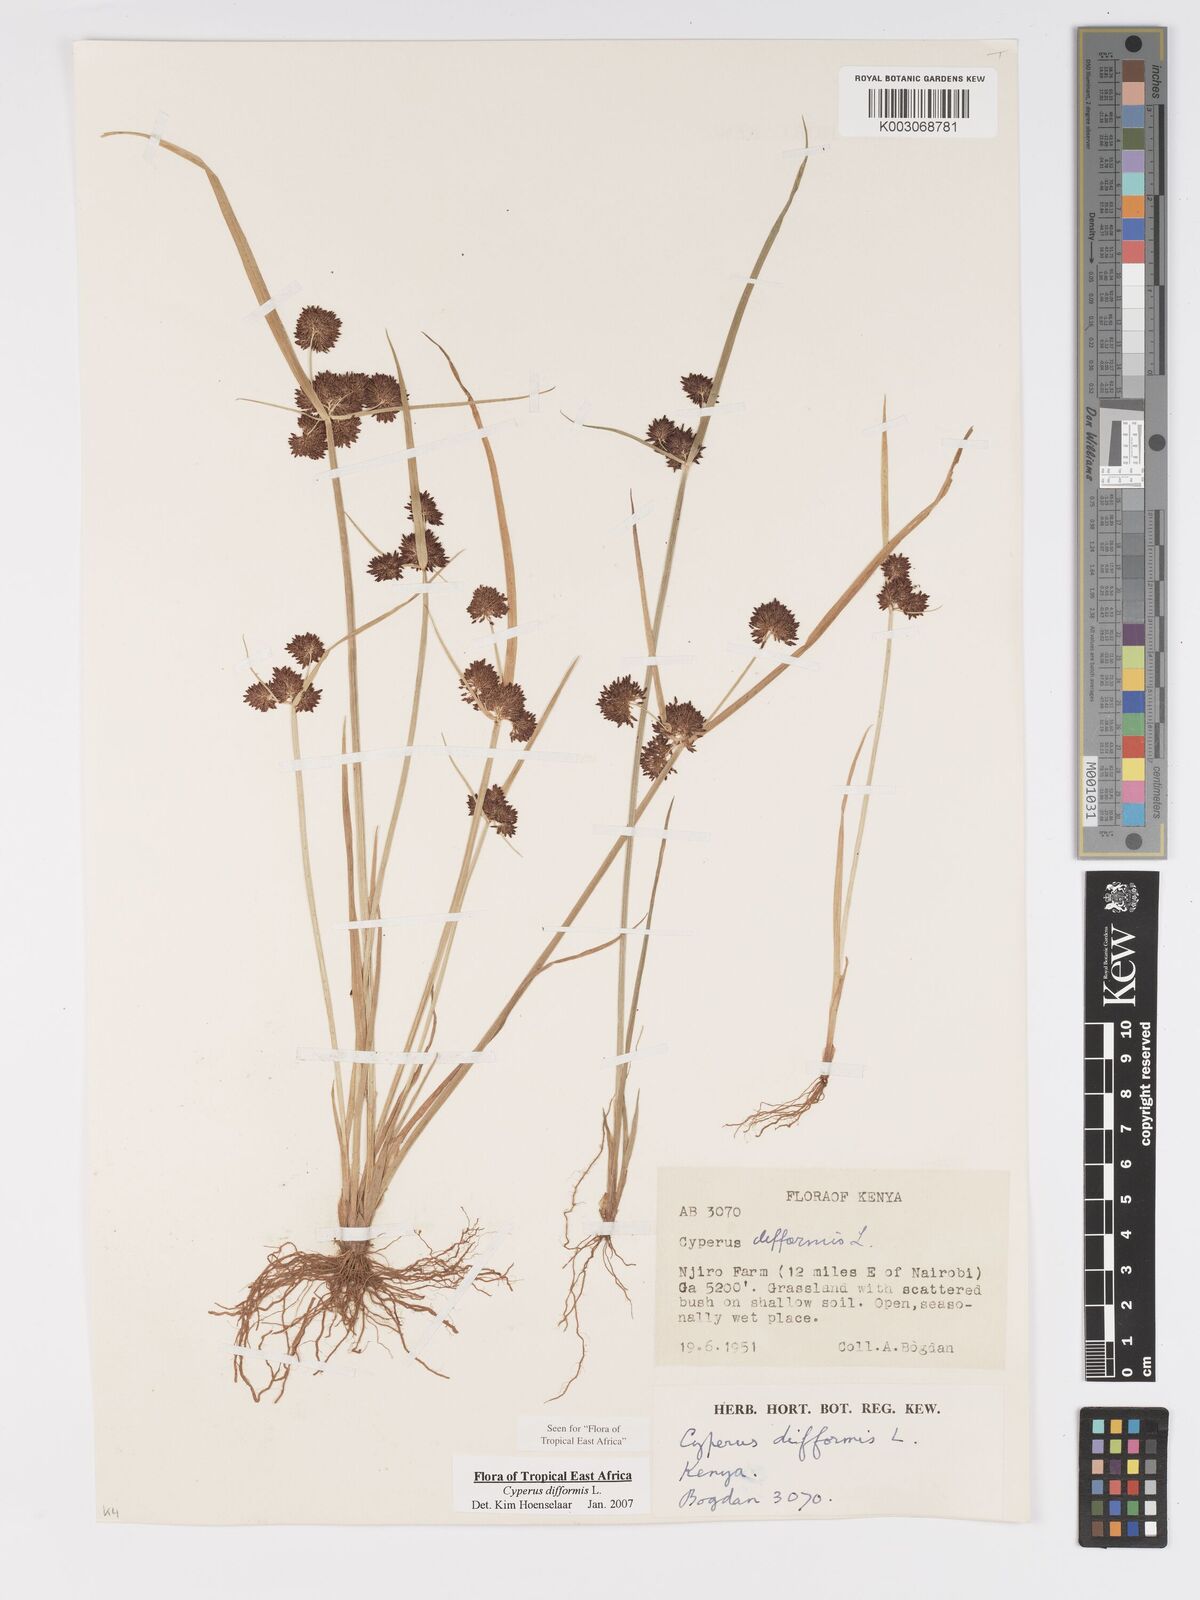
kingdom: Plantae
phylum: Tracheophyta
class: Liliopsida
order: Poales
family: Cyperaceae
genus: Cyperus
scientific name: Cyperus difformis
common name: Variable flatsedge
